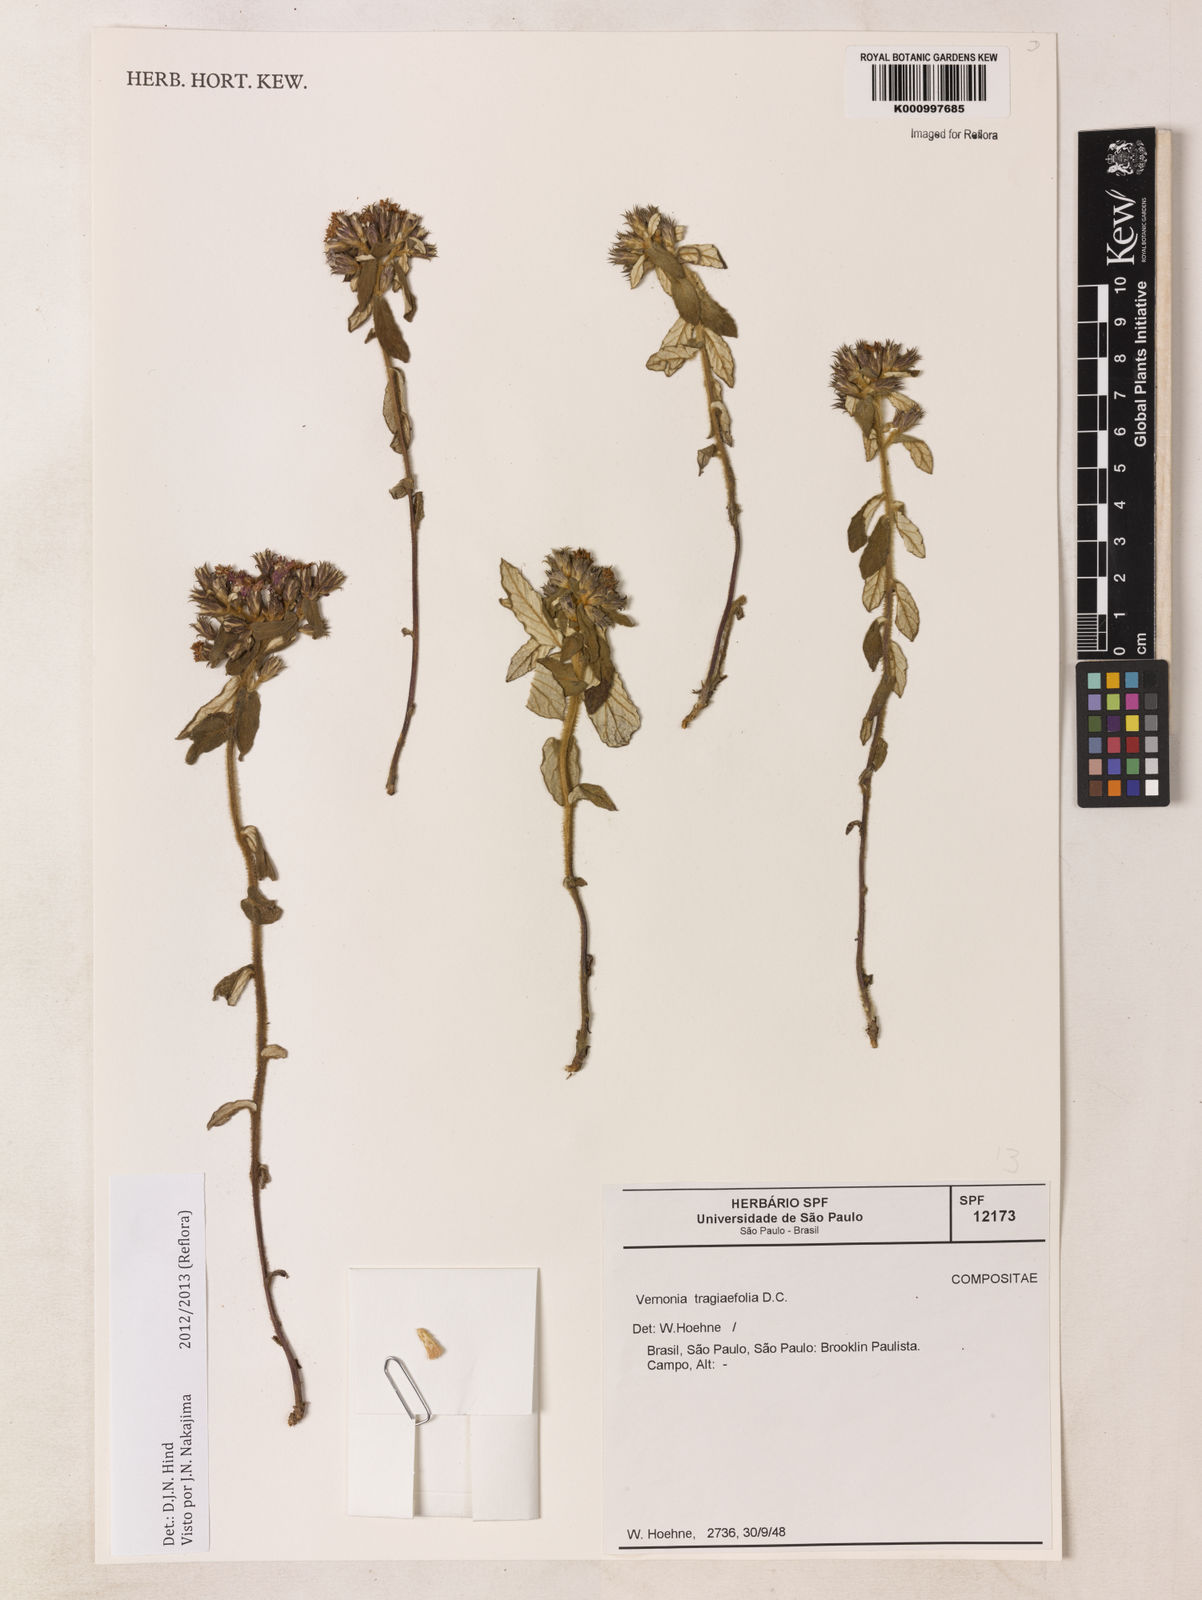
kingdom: Plantae
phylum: Tracheophyta
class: Magnoliopsida
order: Asterales
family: Asteraceae
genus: Vernonia
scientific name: Vernonia
